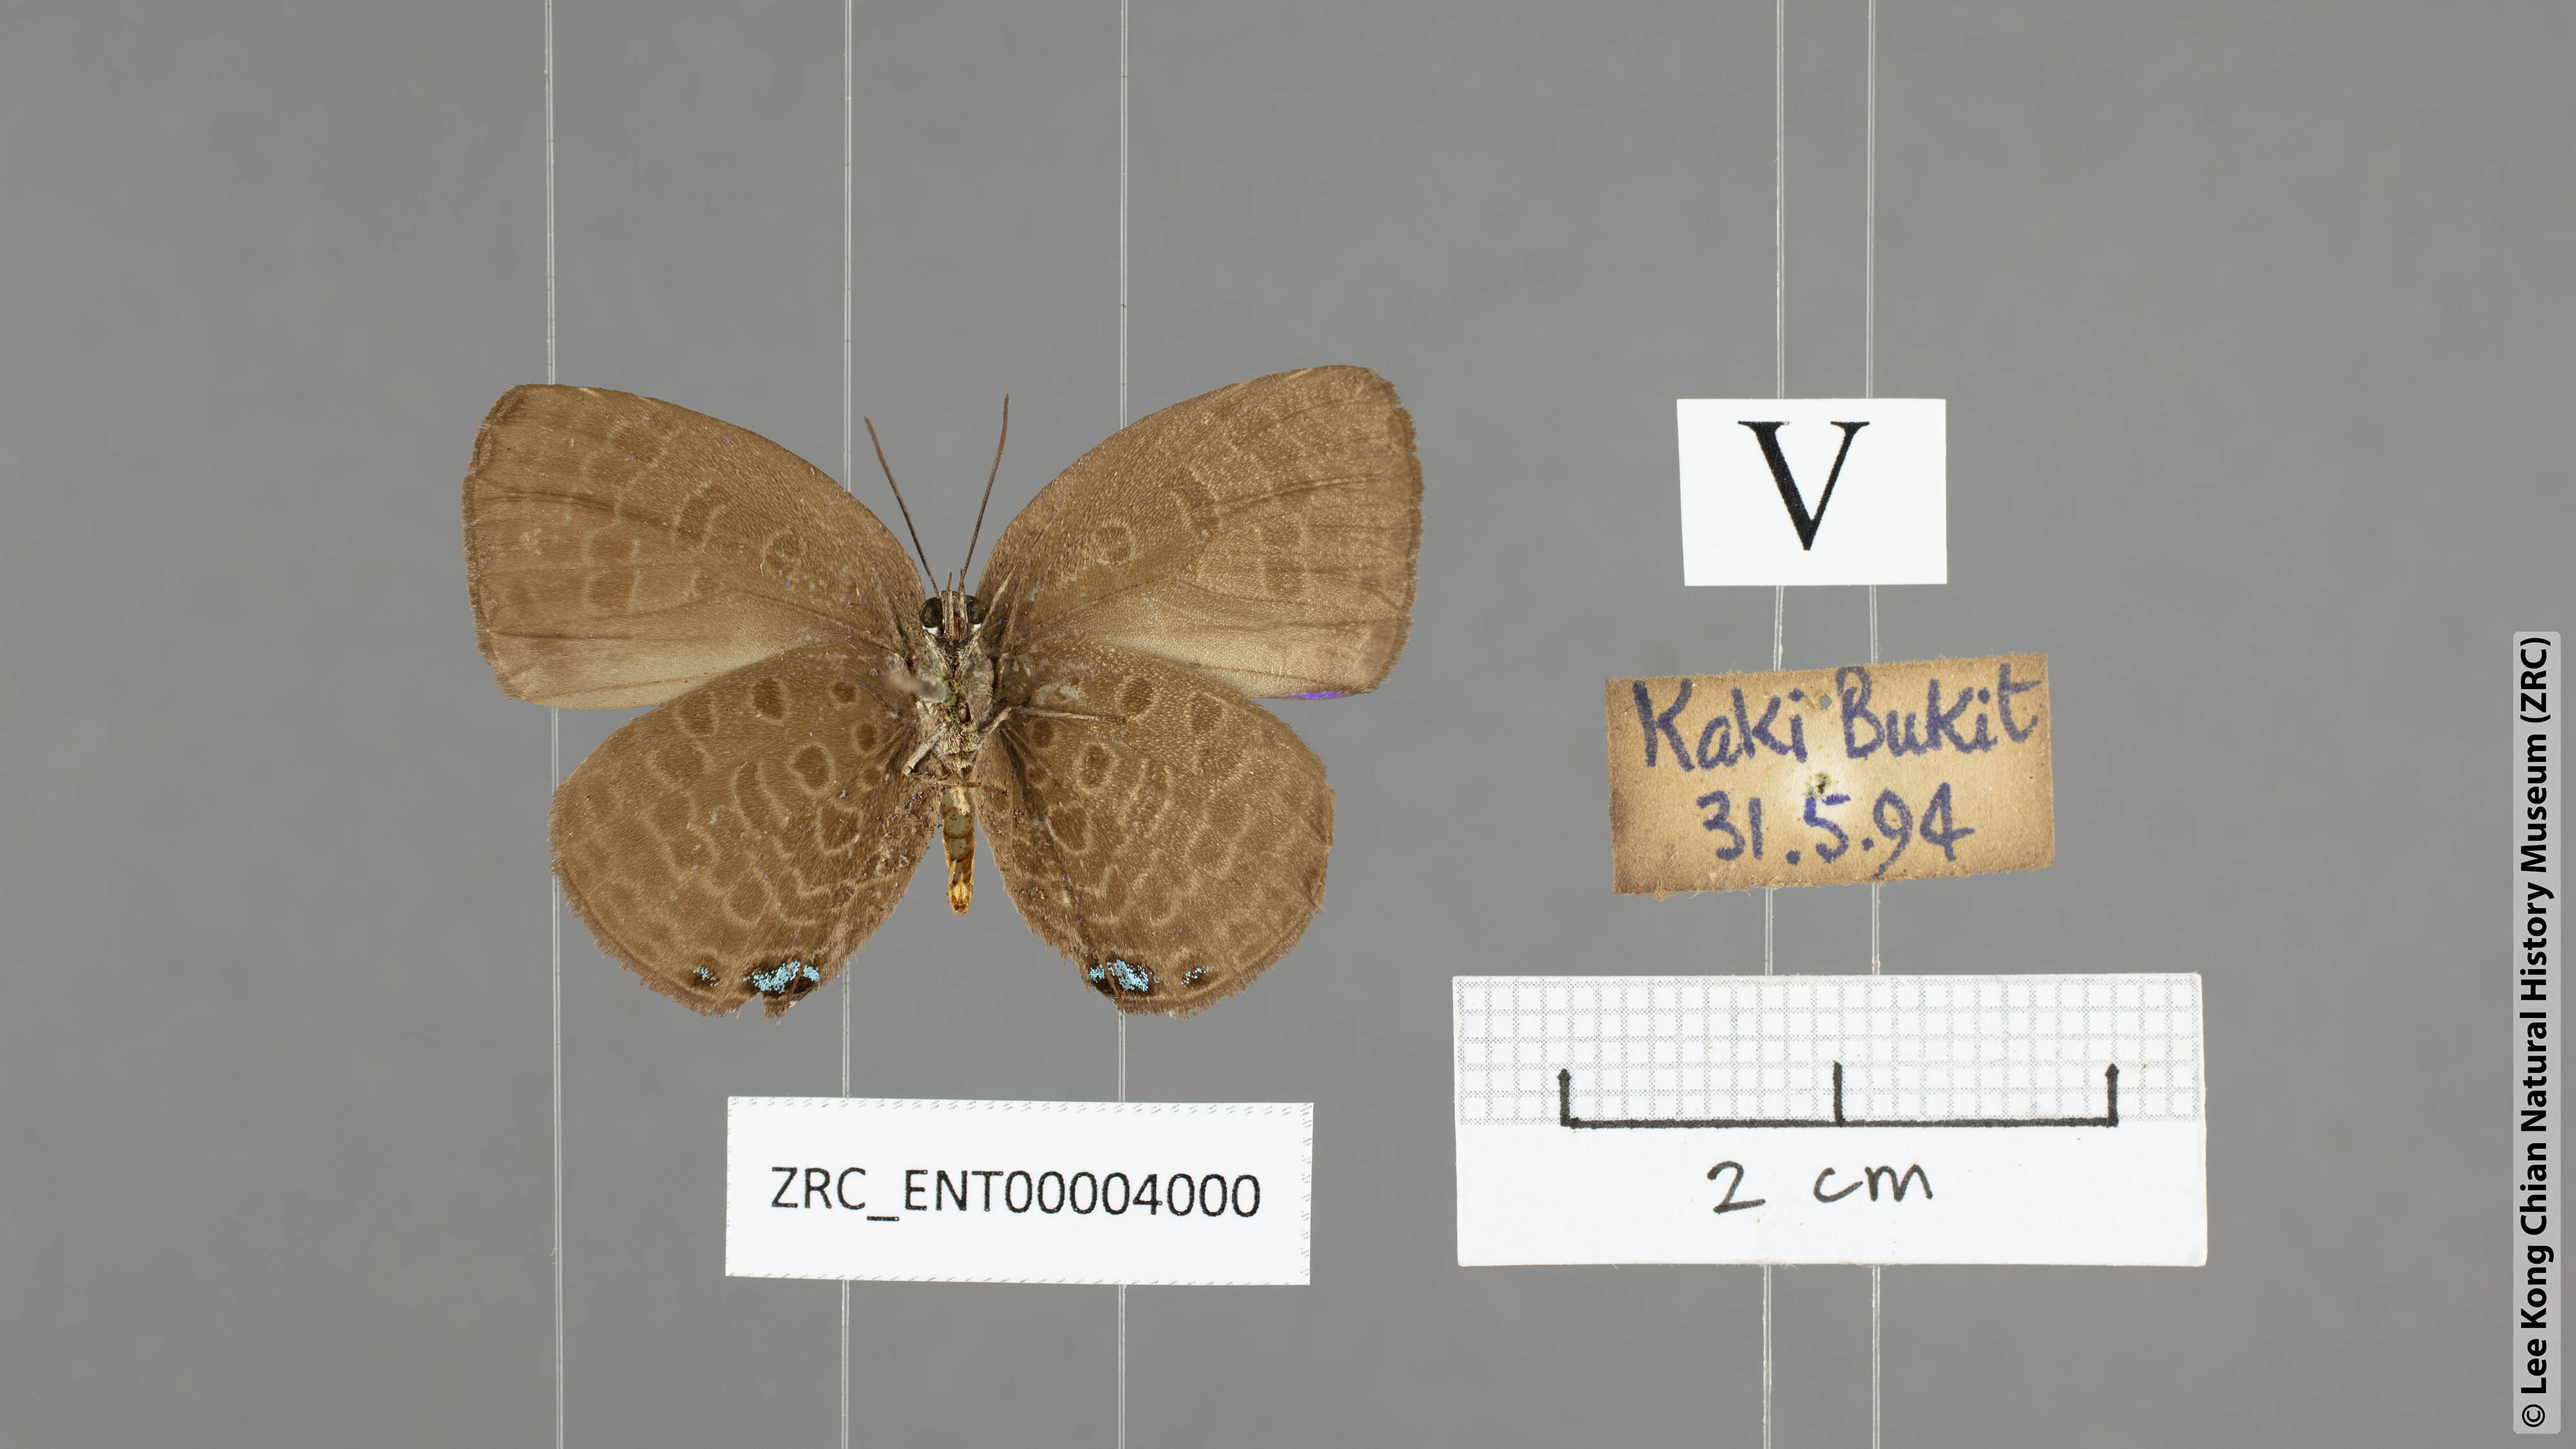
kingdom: Animalia
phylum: Arthropoda
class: Insecta
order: Lepidoptera
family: Lycaenidae
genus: Arhopala
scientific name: Arhopala moolaina
